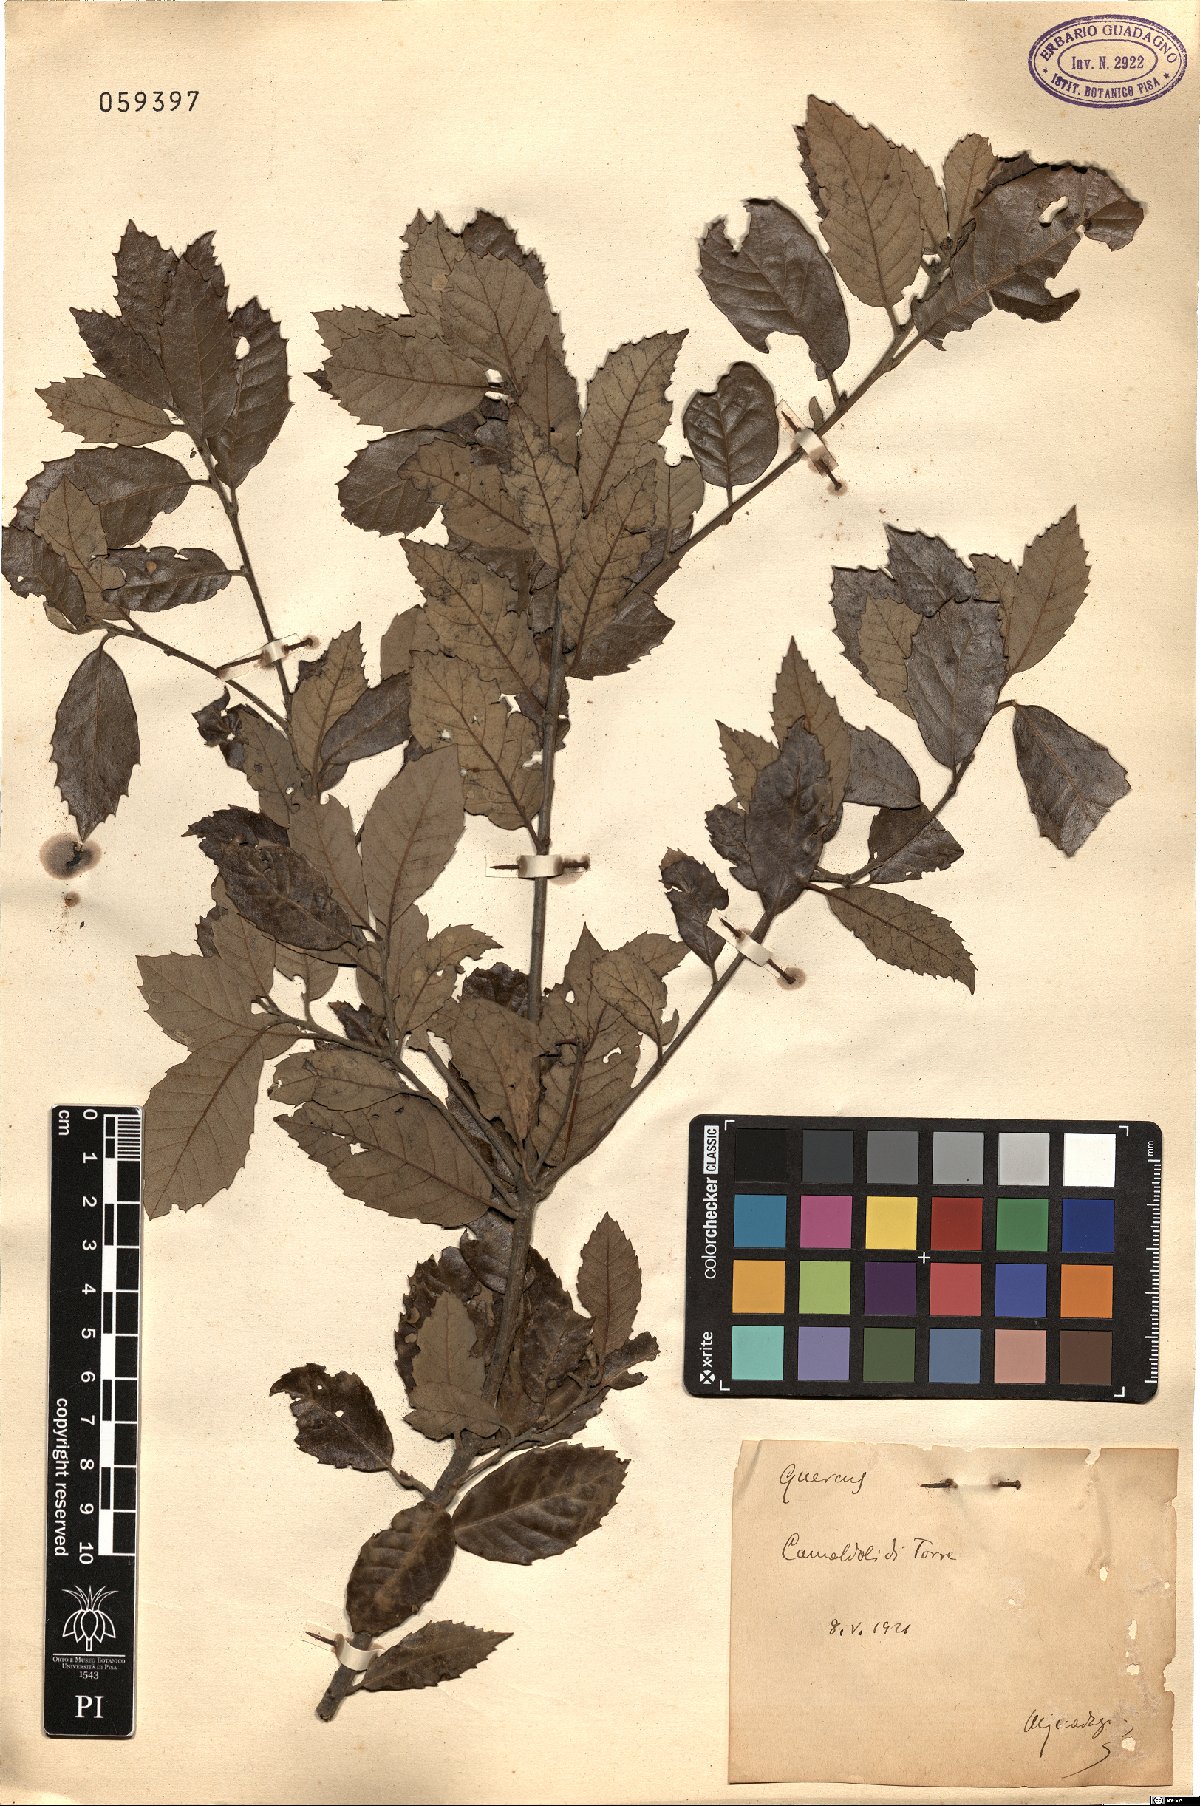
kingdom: Plantae
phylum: Tracheophyta
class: Magnoliopsida
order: Fagales
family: Fagaceae
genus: Quercus
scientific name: Quercus
